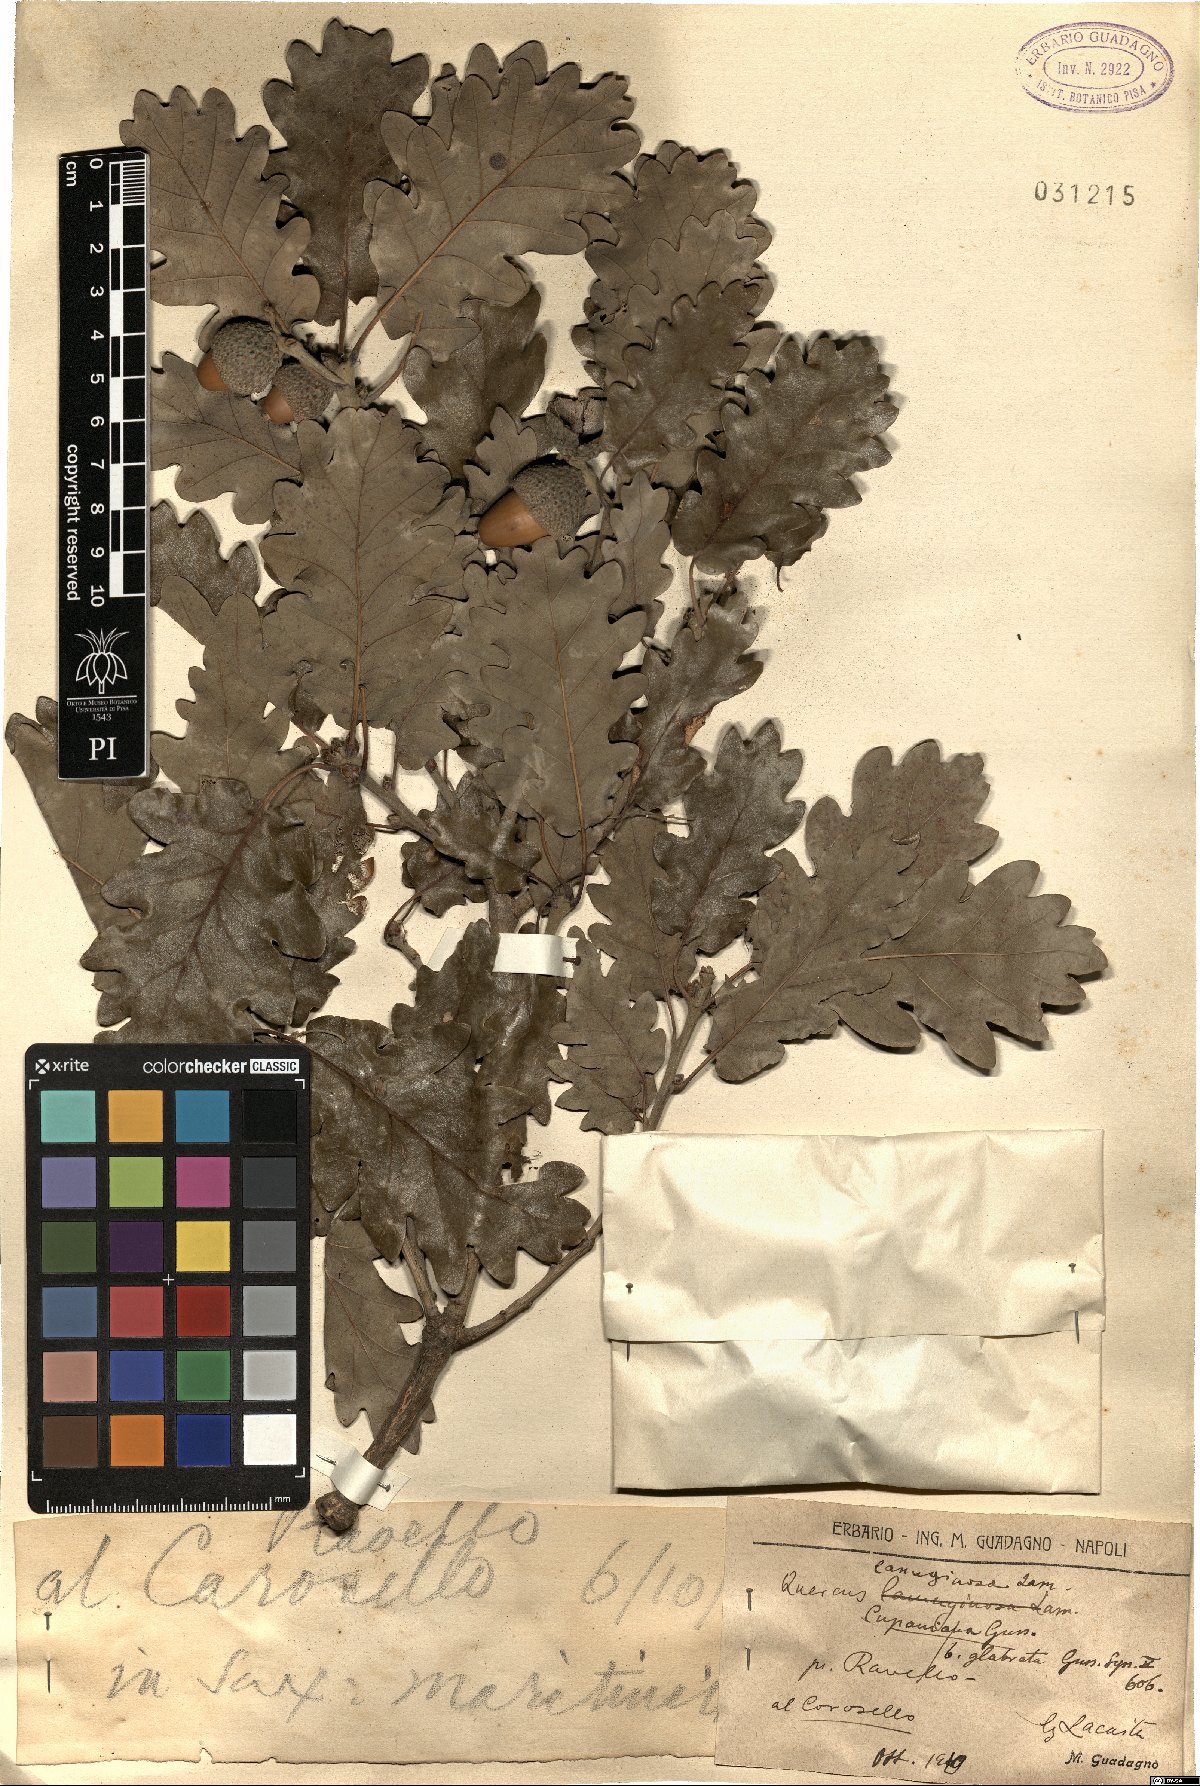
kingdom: Plantae
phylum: Tracheophyta
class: Magnoliopsida
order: Fagales
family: Fagaceae
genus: Quercus
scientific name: Quercus cerris
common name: Turkey oak
